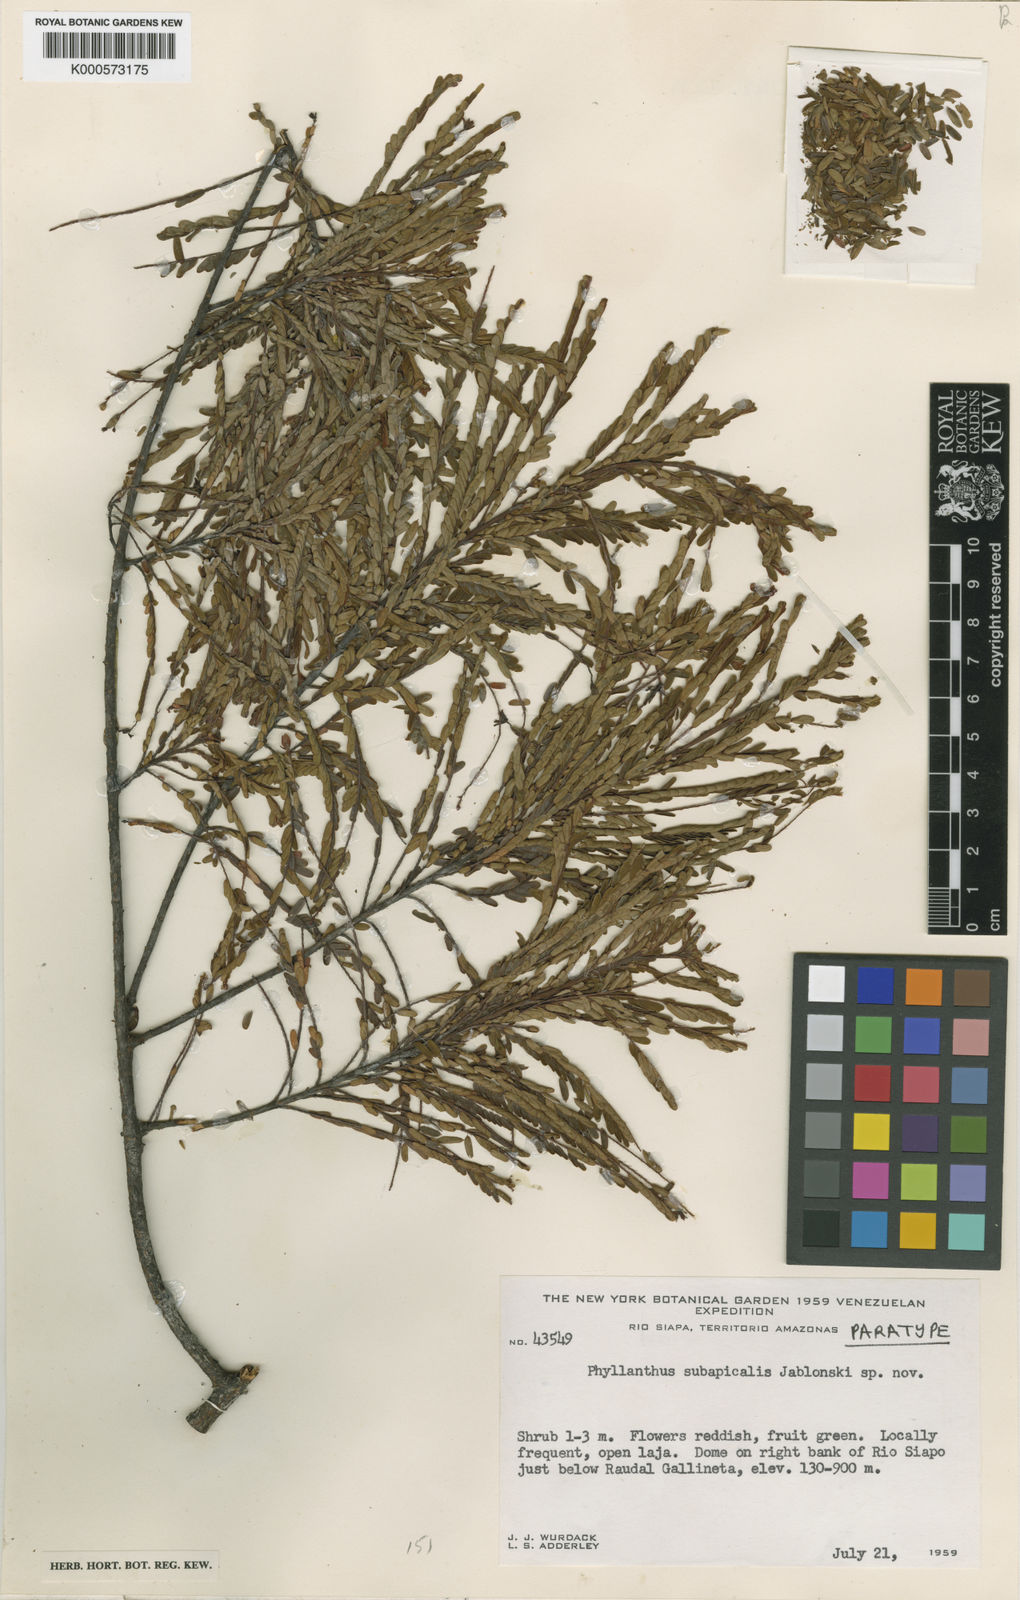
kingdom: Plantae
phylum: Tracheophyta
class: Magnoliopsida
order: Malpighiales
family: Phyllanthaceae
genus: Phyllanthus
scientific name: Phyllanthus subapicalis
